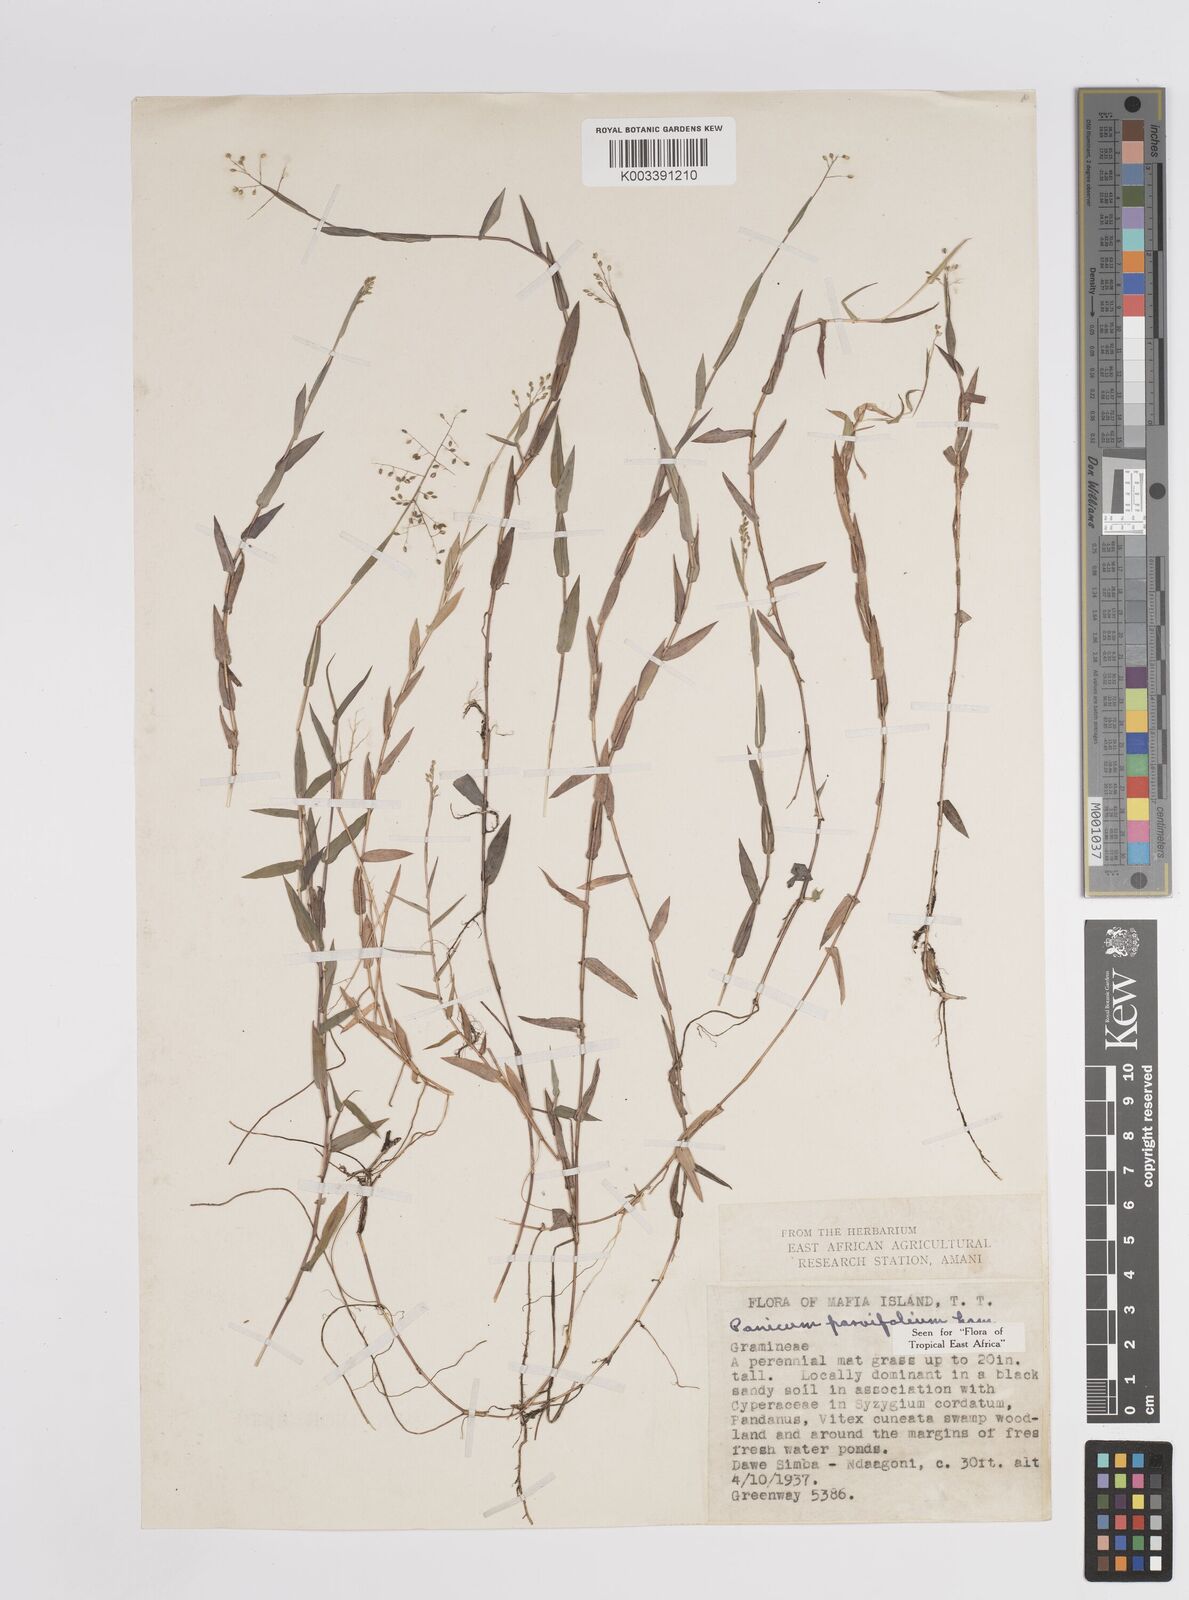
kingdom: Plantae
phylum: Tracheophyta
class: Liliopsida
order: Poales
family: Poaceae
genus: Trichanthecium
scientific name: Trichanthecium parvifolium
